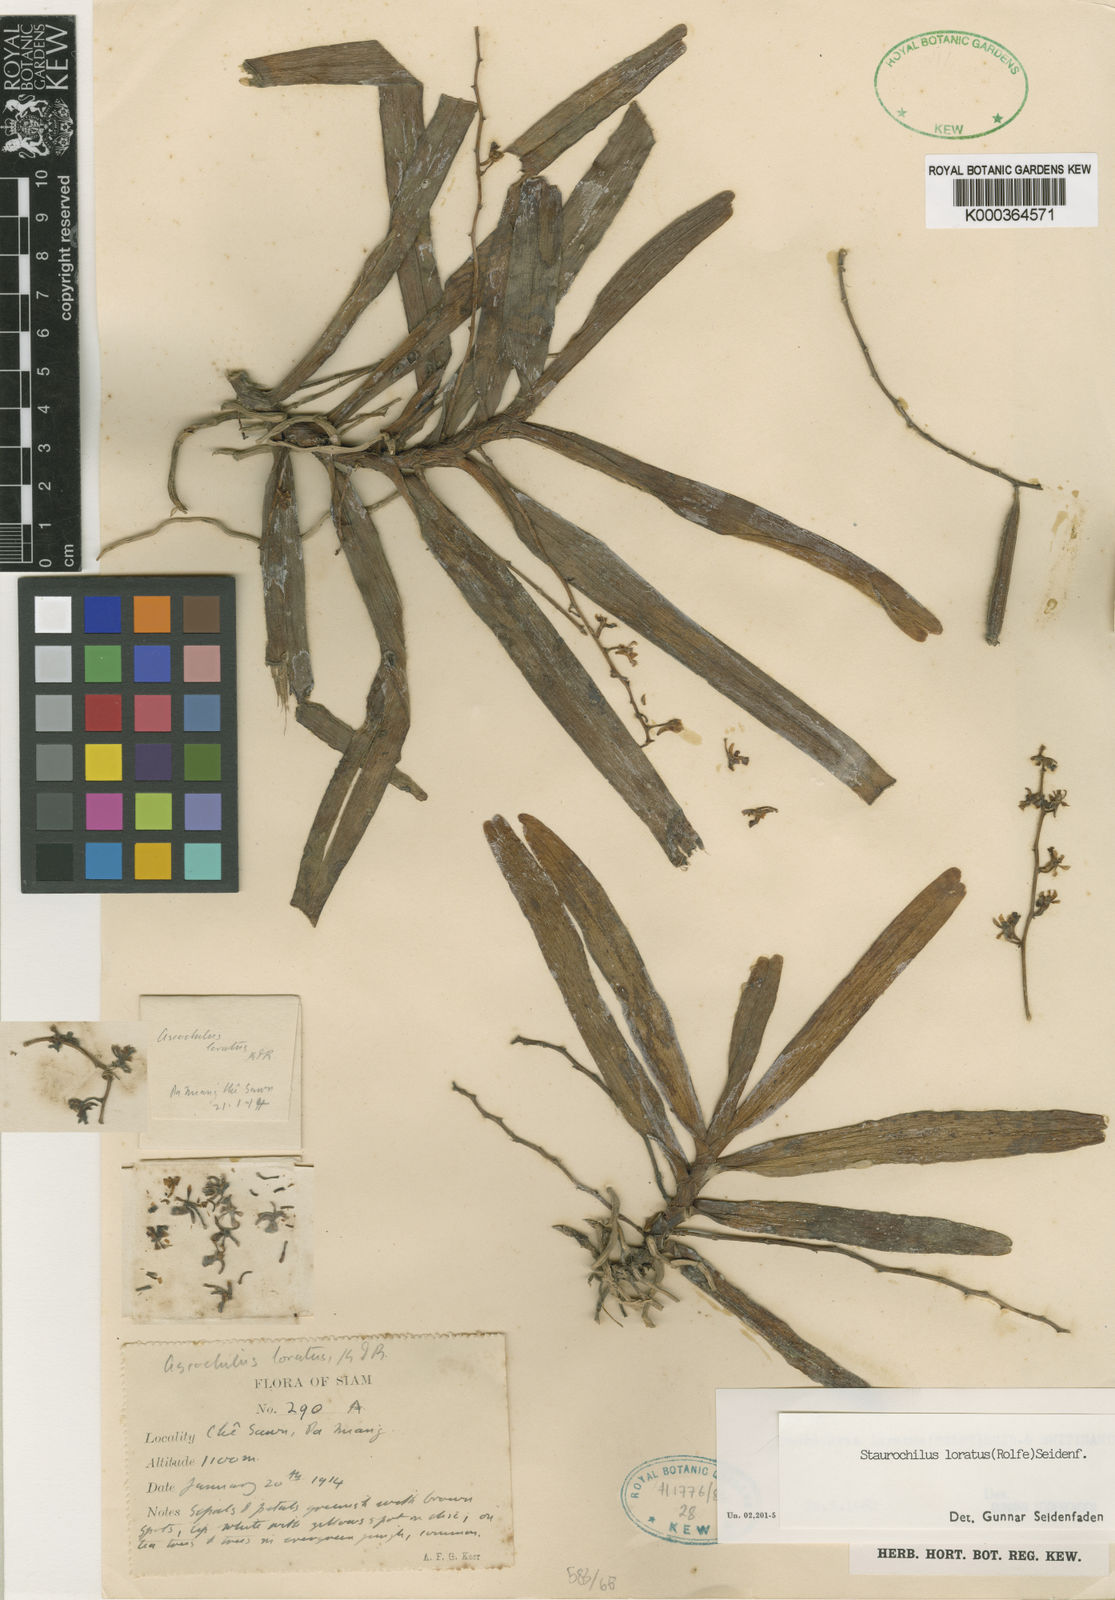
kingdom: Plantae
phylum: Tracheophyta
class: Liliopsida
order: Asparagales
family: Orchidaceae
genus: Trichoglottis
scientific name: Trichoglottis lorata
